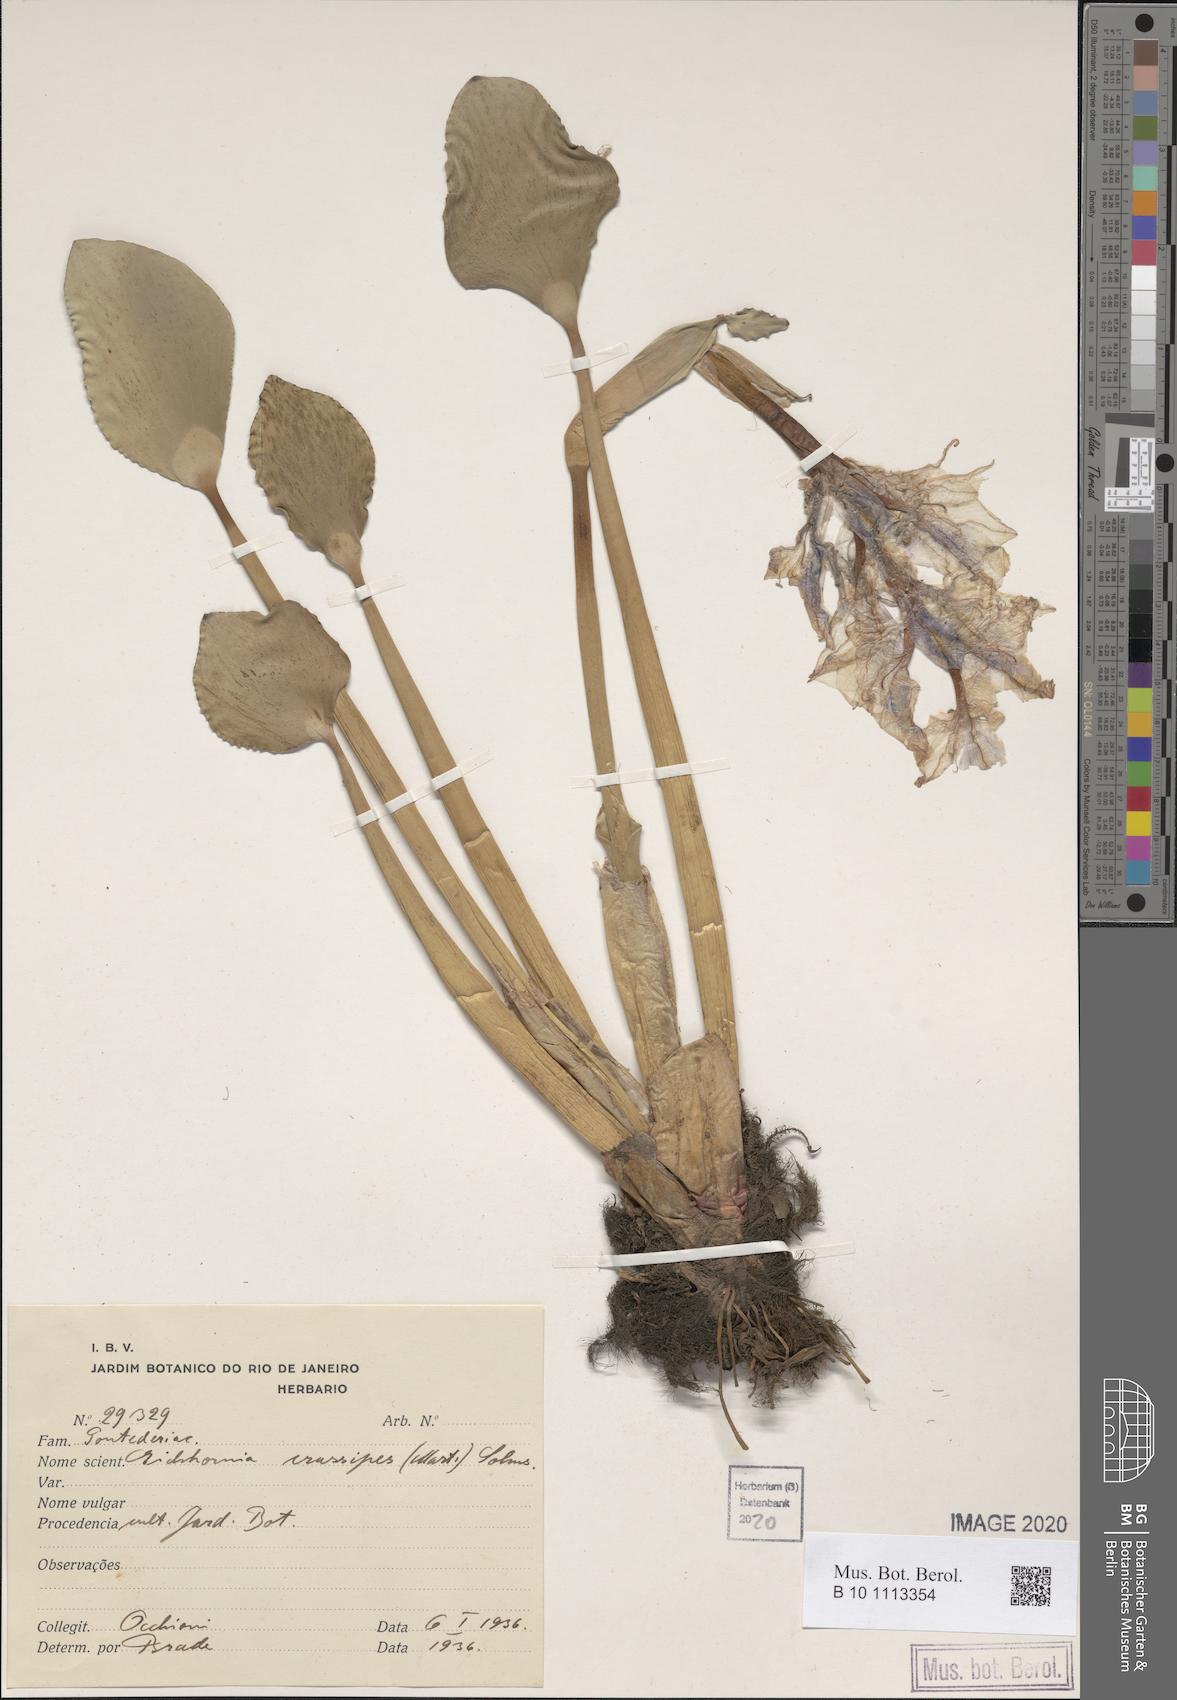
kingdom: Plantae
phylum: Tracheophyta
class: Liliopsida
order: Commelinales
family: Pontederiaceae
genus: Pontederia
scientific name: Pontederia crassipes
